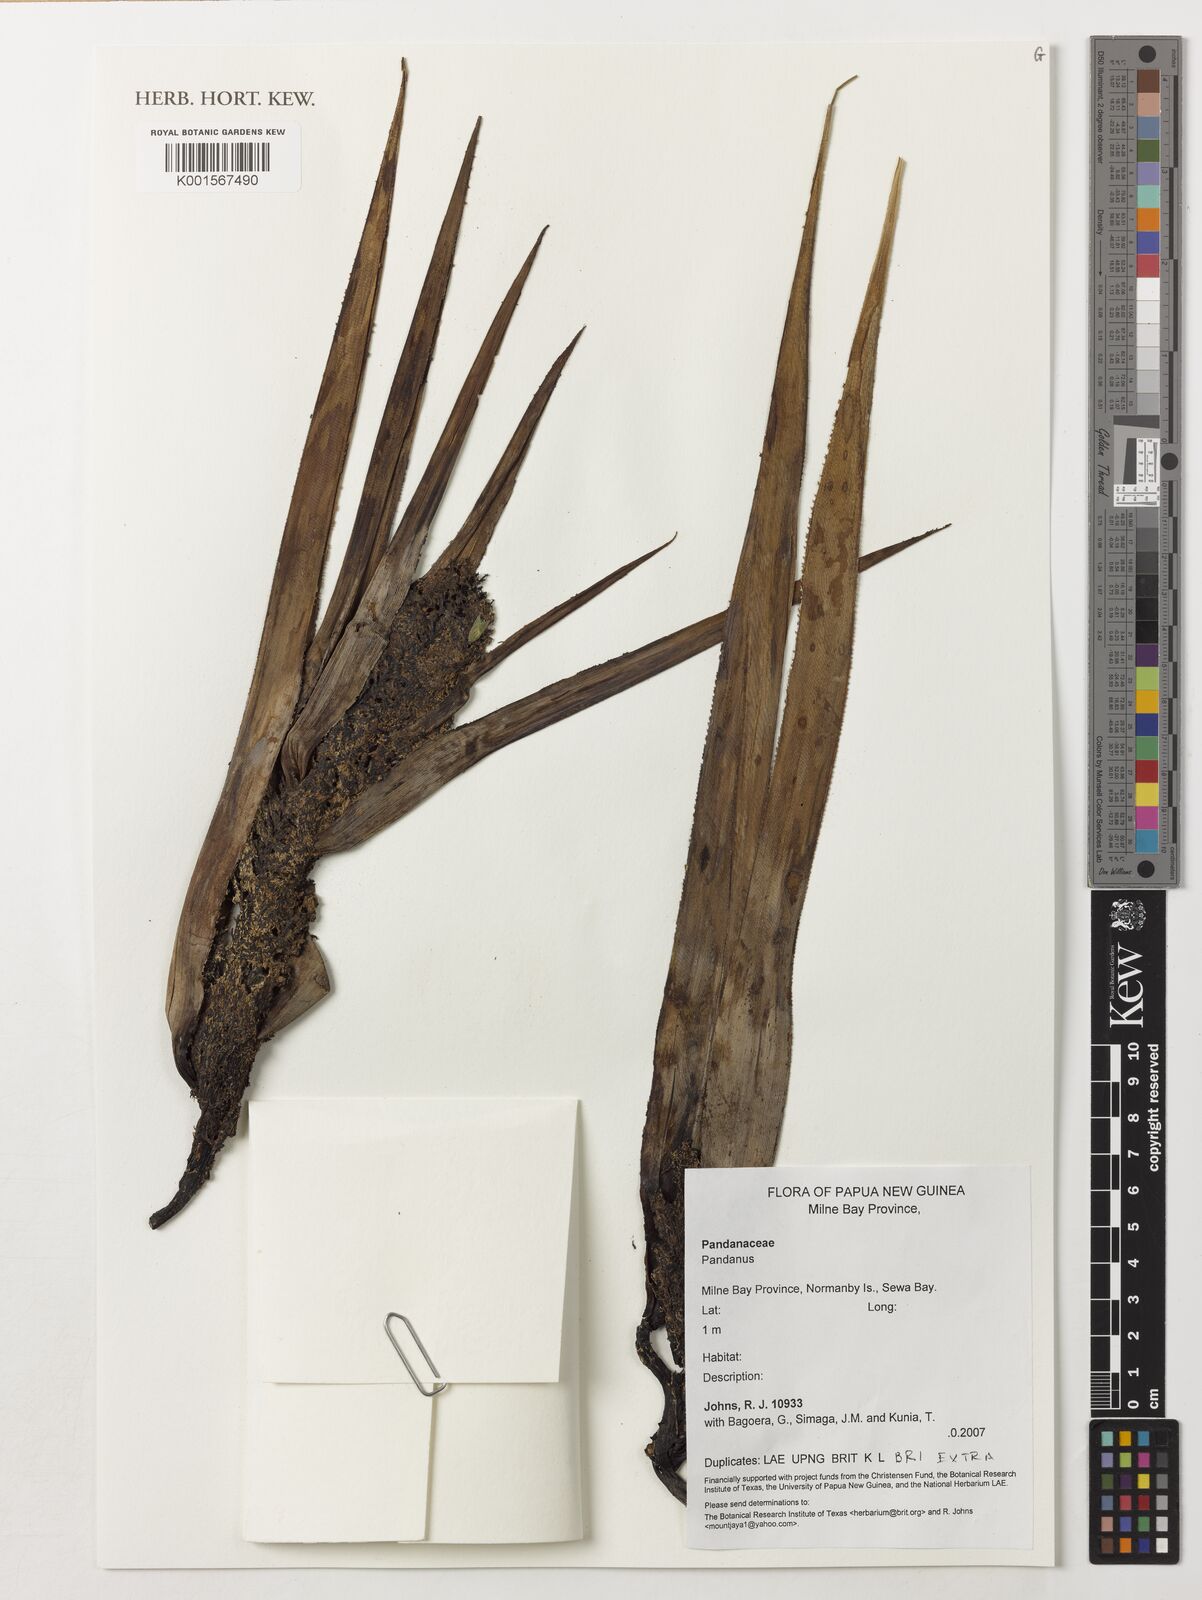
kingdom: Plantae
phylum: Tracheophyta
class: Liliopsida
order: Pandanales
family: Pandanaceae
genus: Pandanus
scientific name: Pandanus
